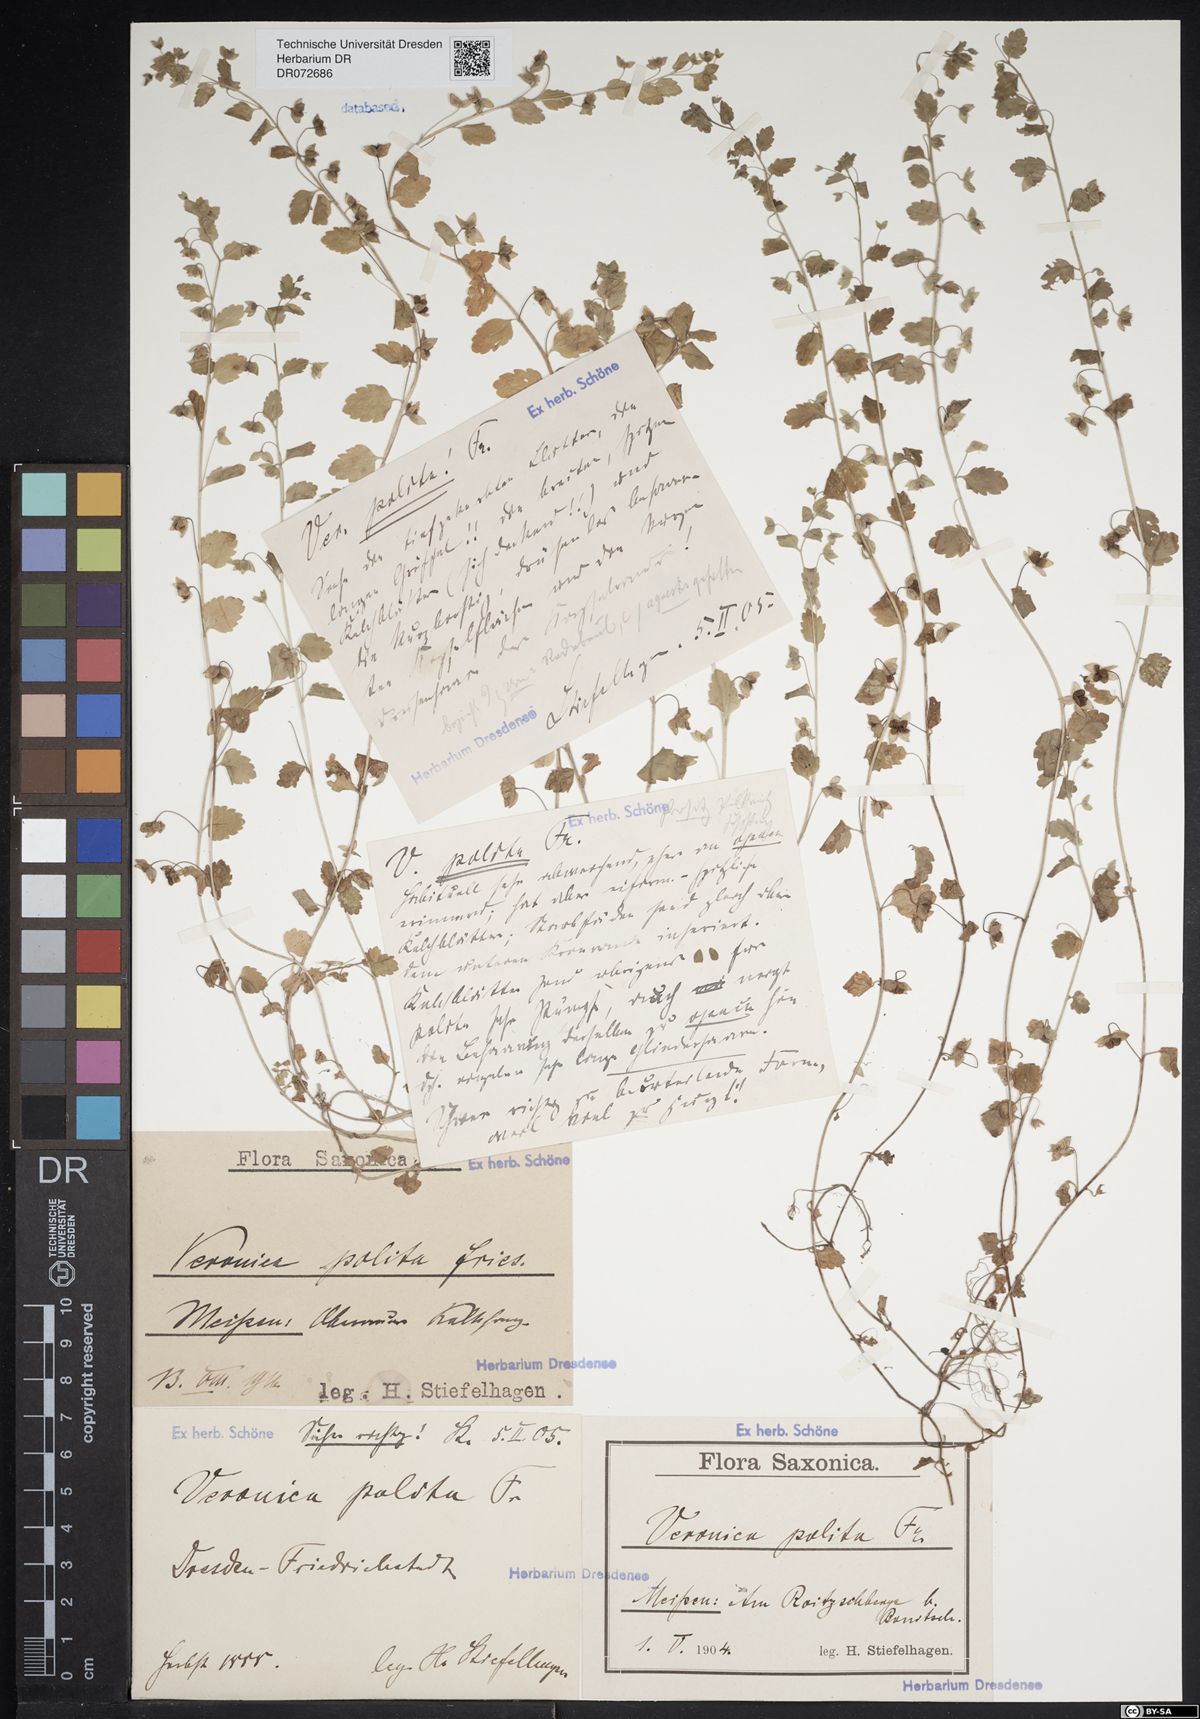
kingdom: Plantae
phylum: Tracheophyta
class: Magnoliopsida
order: Lamiales
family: Plantaginaceae
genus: Veronica
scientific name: Veronica polita
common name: Grey field-speedwell
